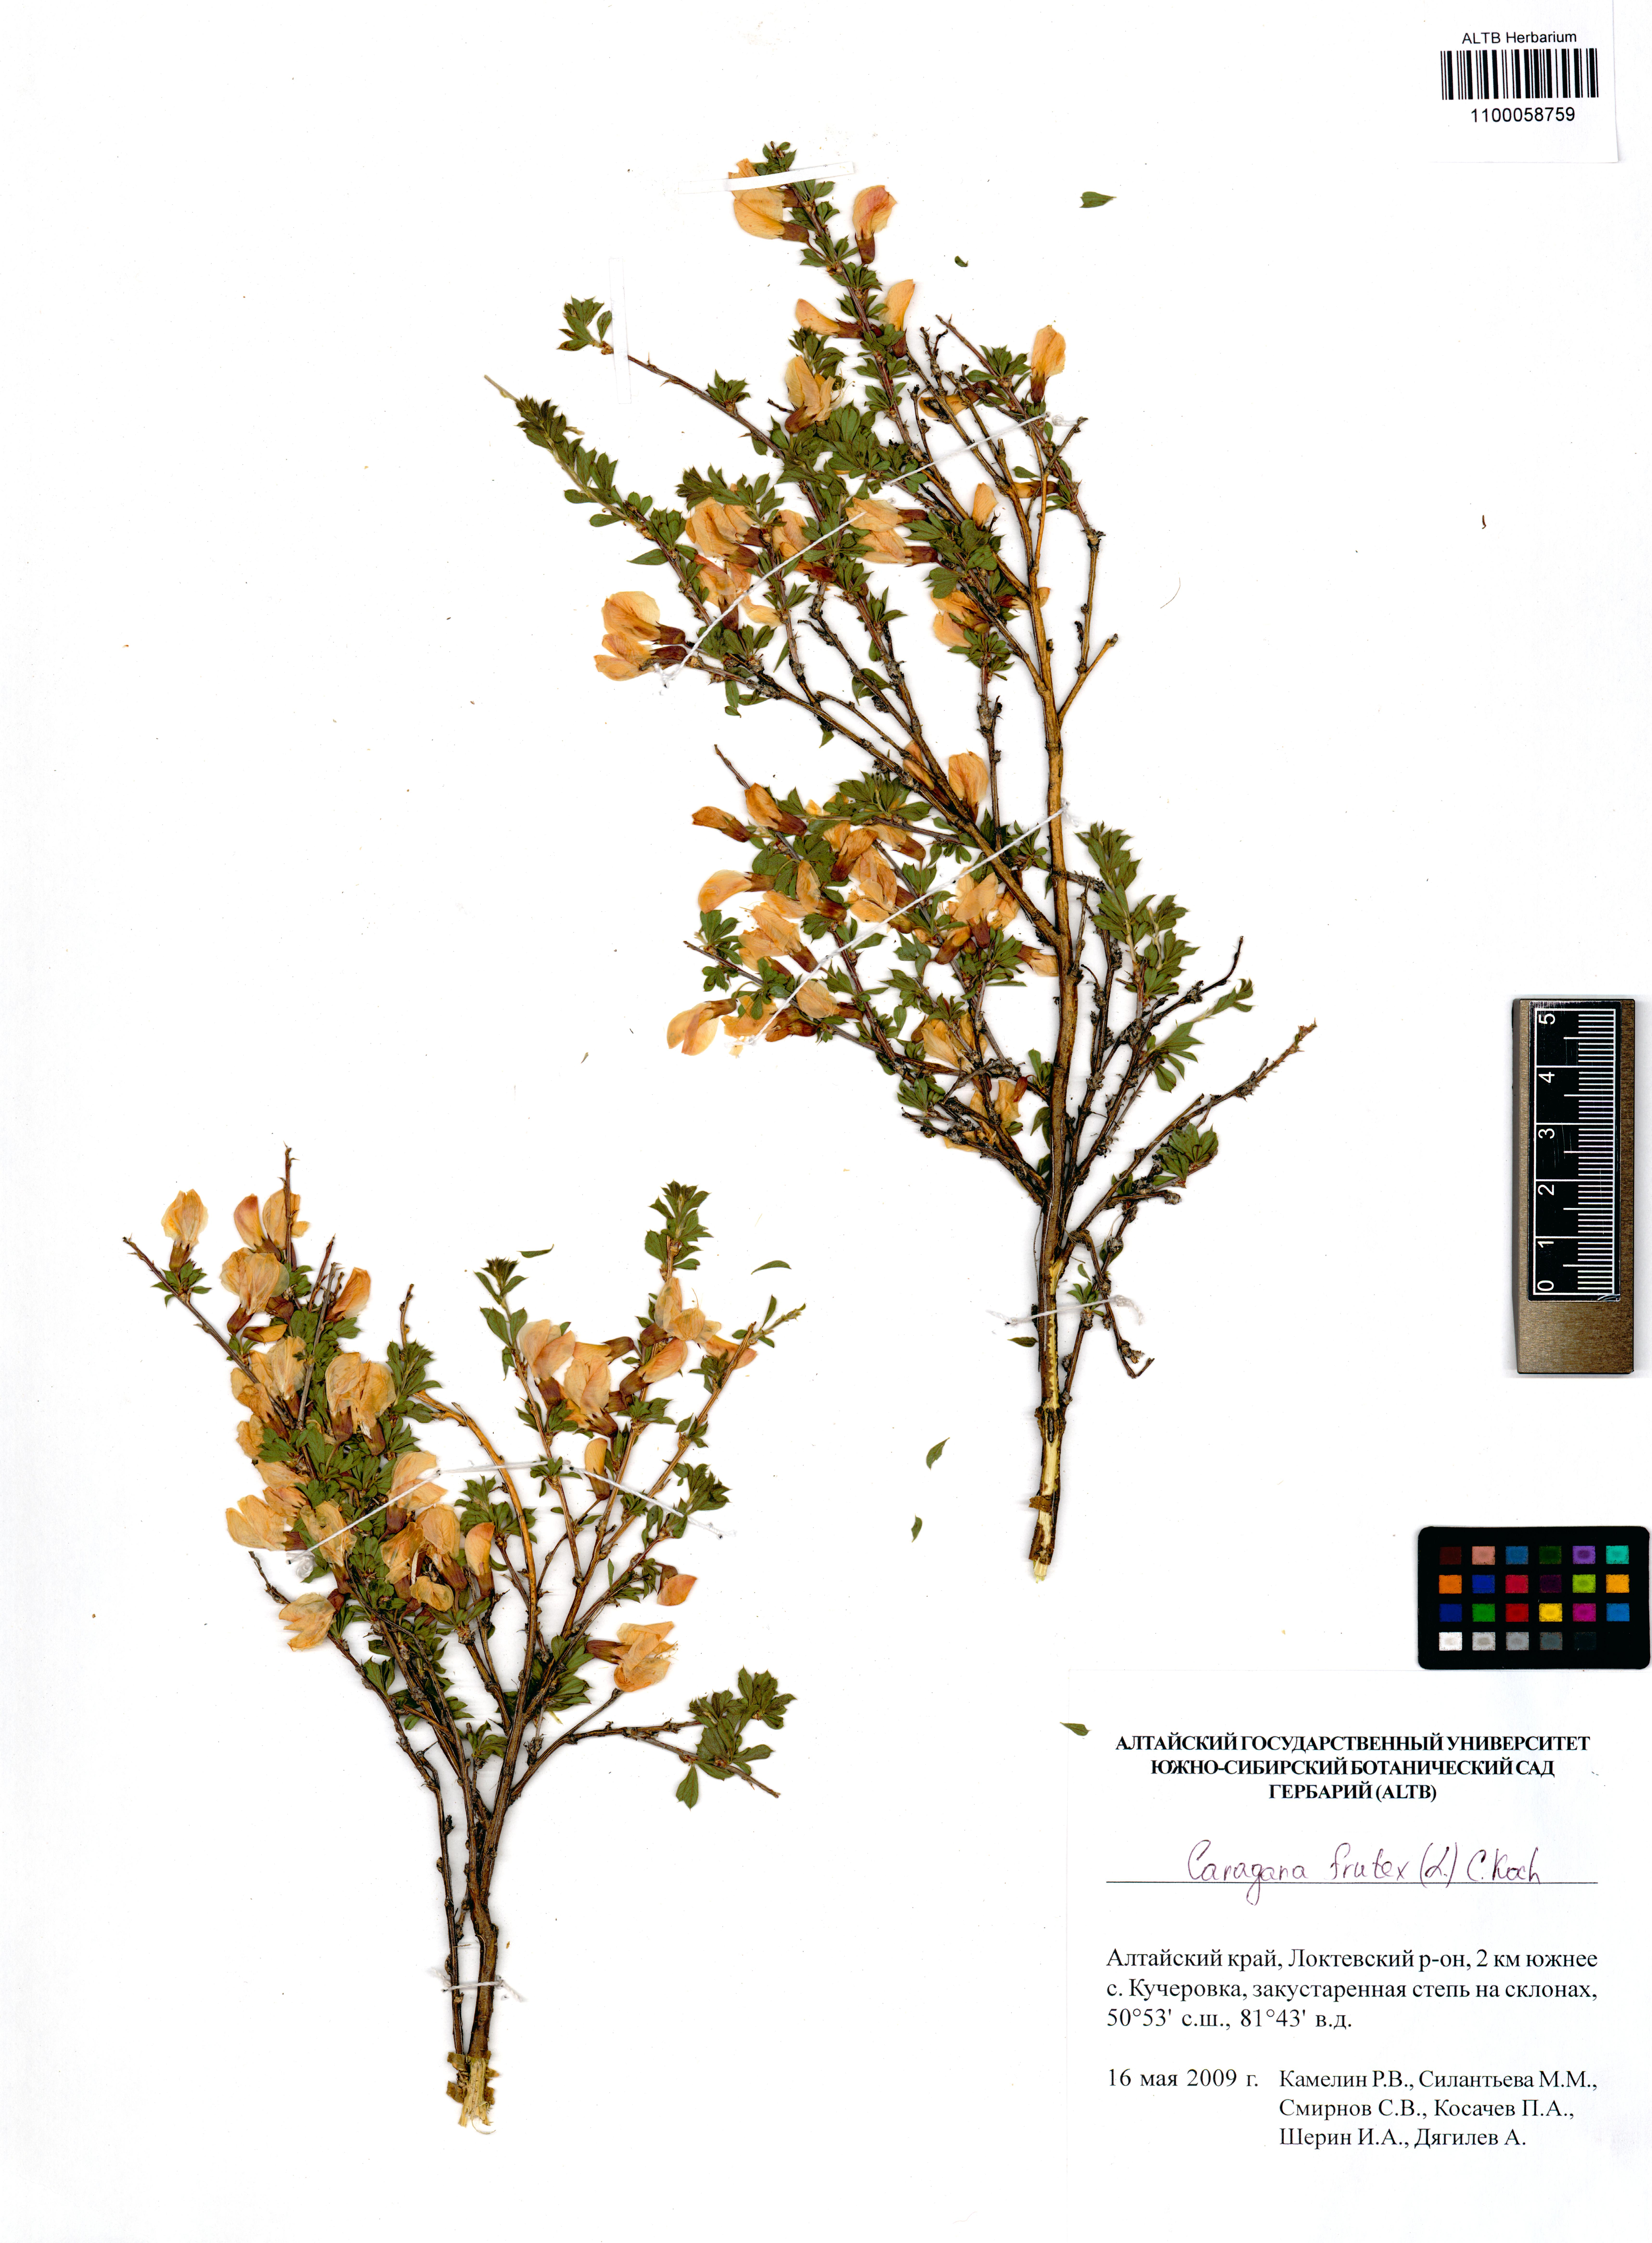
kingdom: Plantae
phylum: Tracheophyta
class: Magnoliopsida
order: Fabales
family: Fabaceae
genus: Caragana
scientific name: Caragana frutex
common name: Russian peashrub
